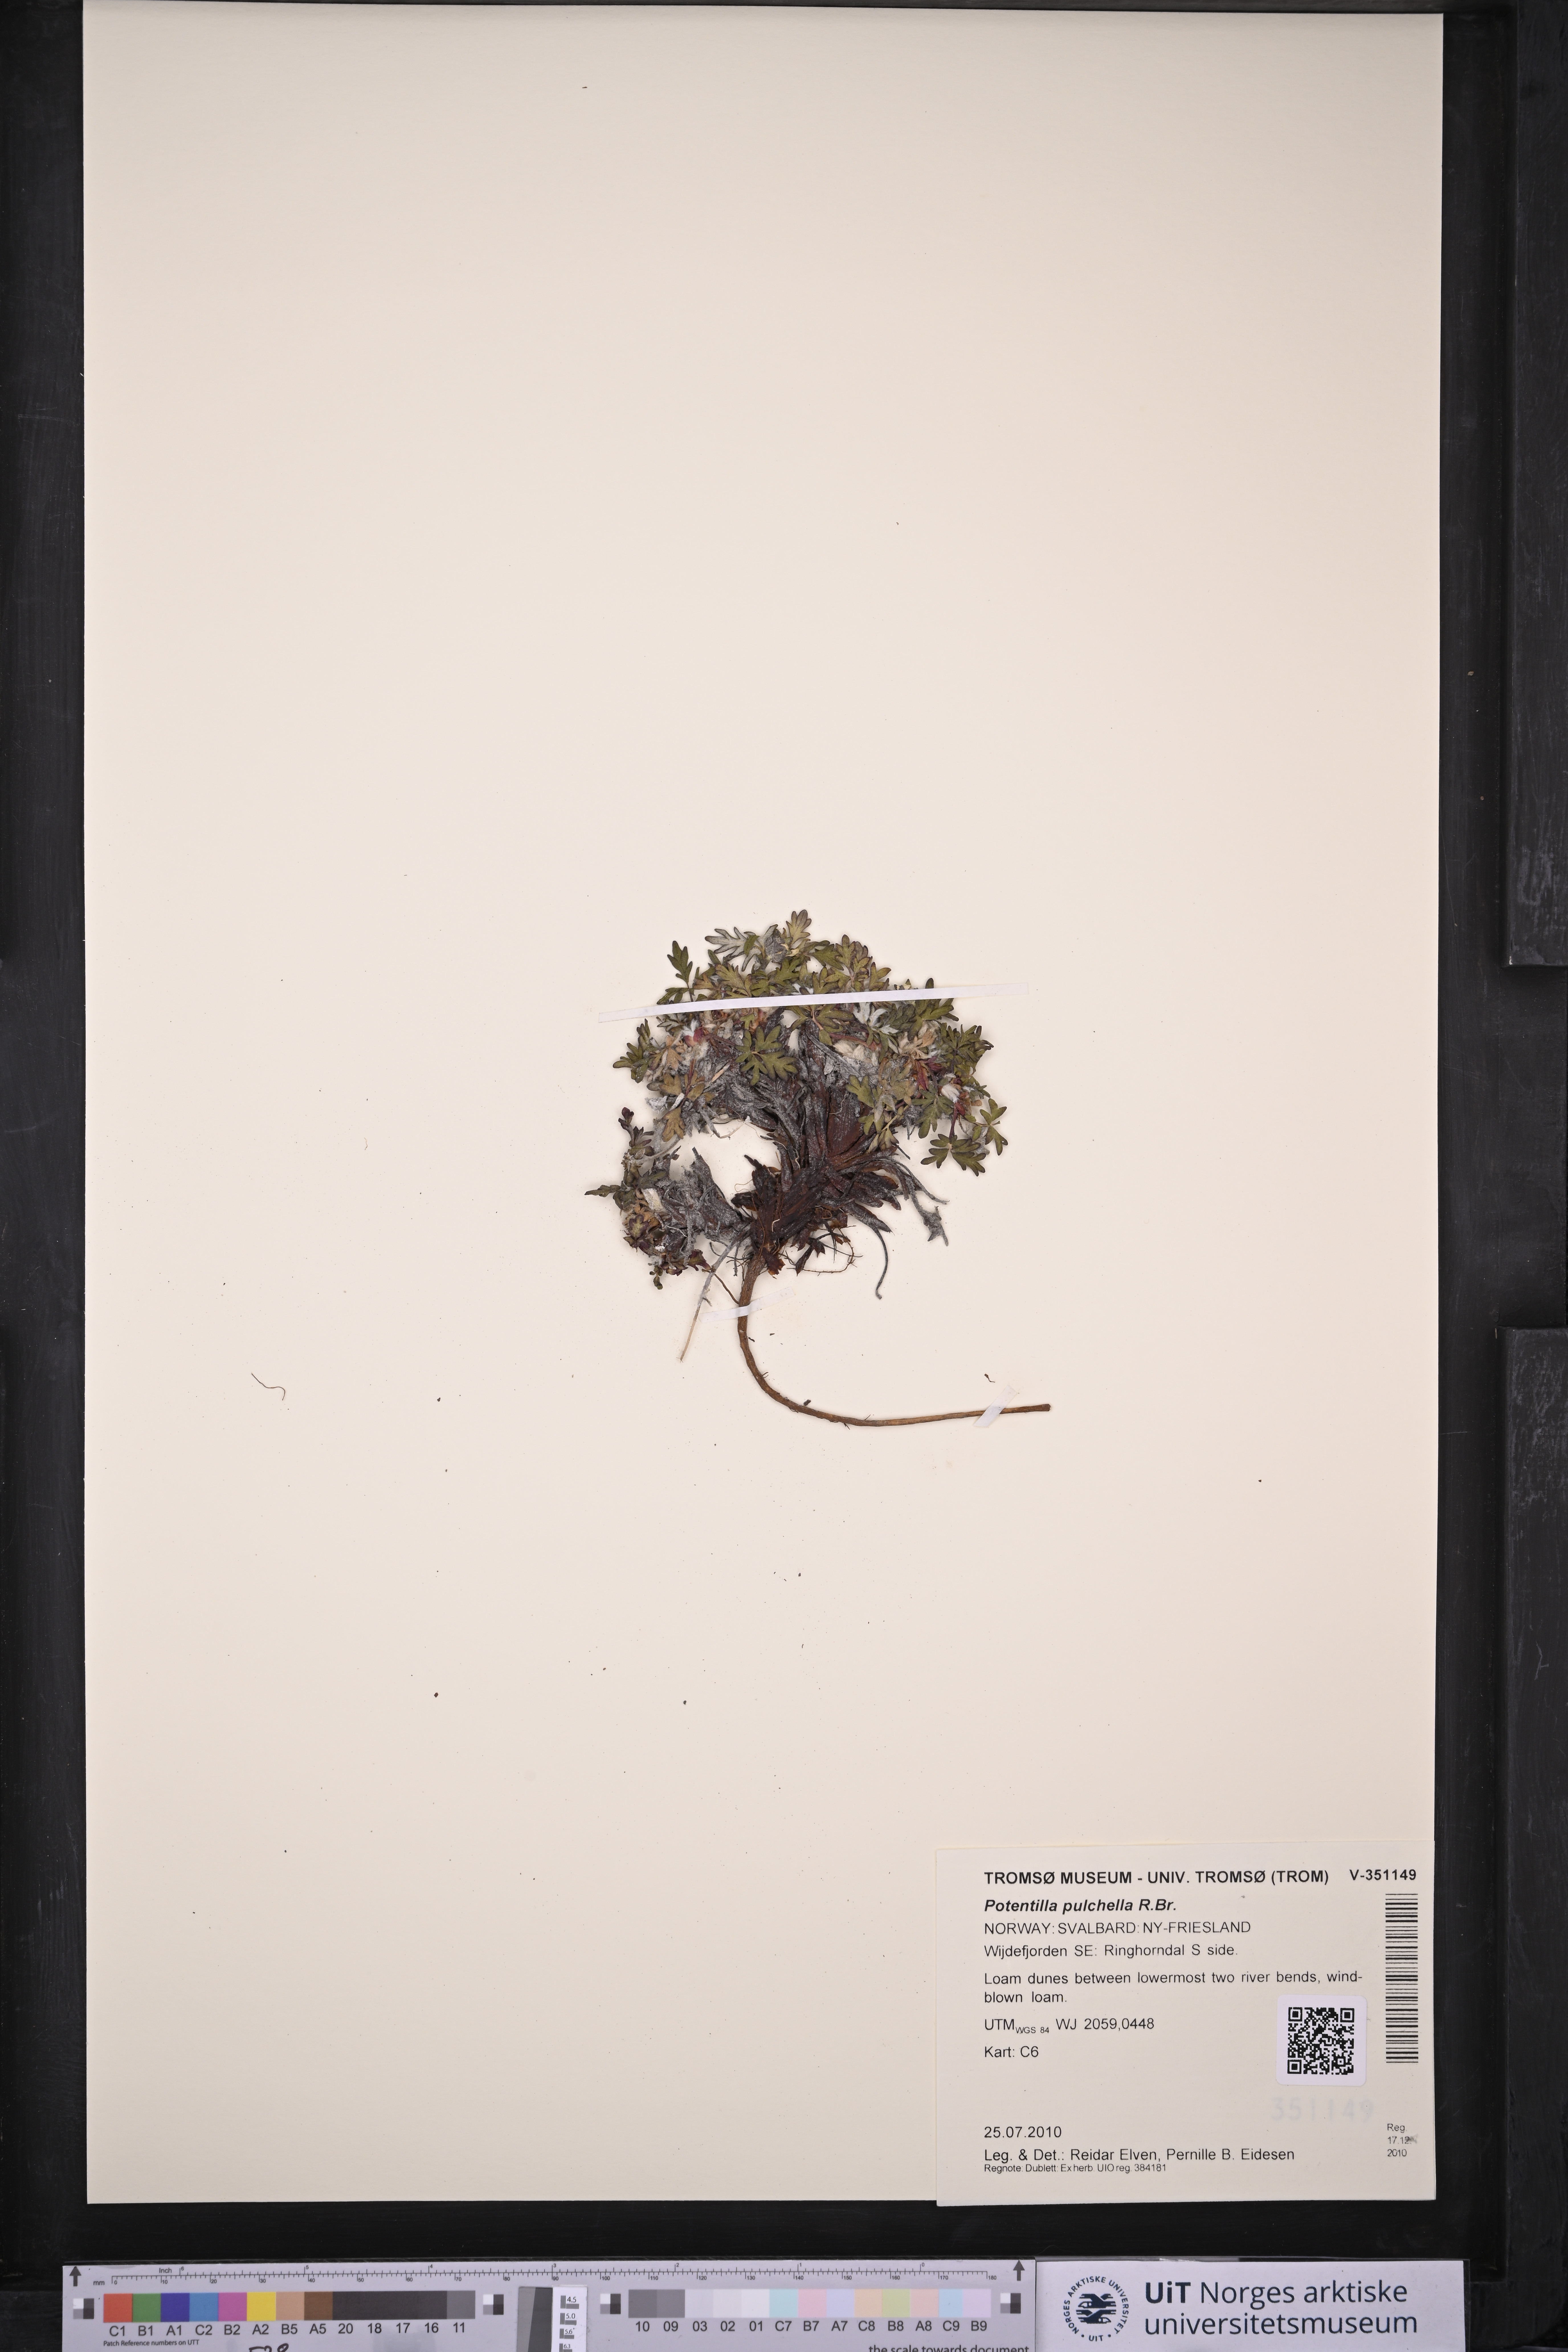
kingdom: Plantae
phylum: Tracheophyta
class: Magnoliopsida
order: Rosales
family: Rosaceae
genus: Potentilla
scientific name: Potentilla pulchella
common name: Pretty cinquefoil
